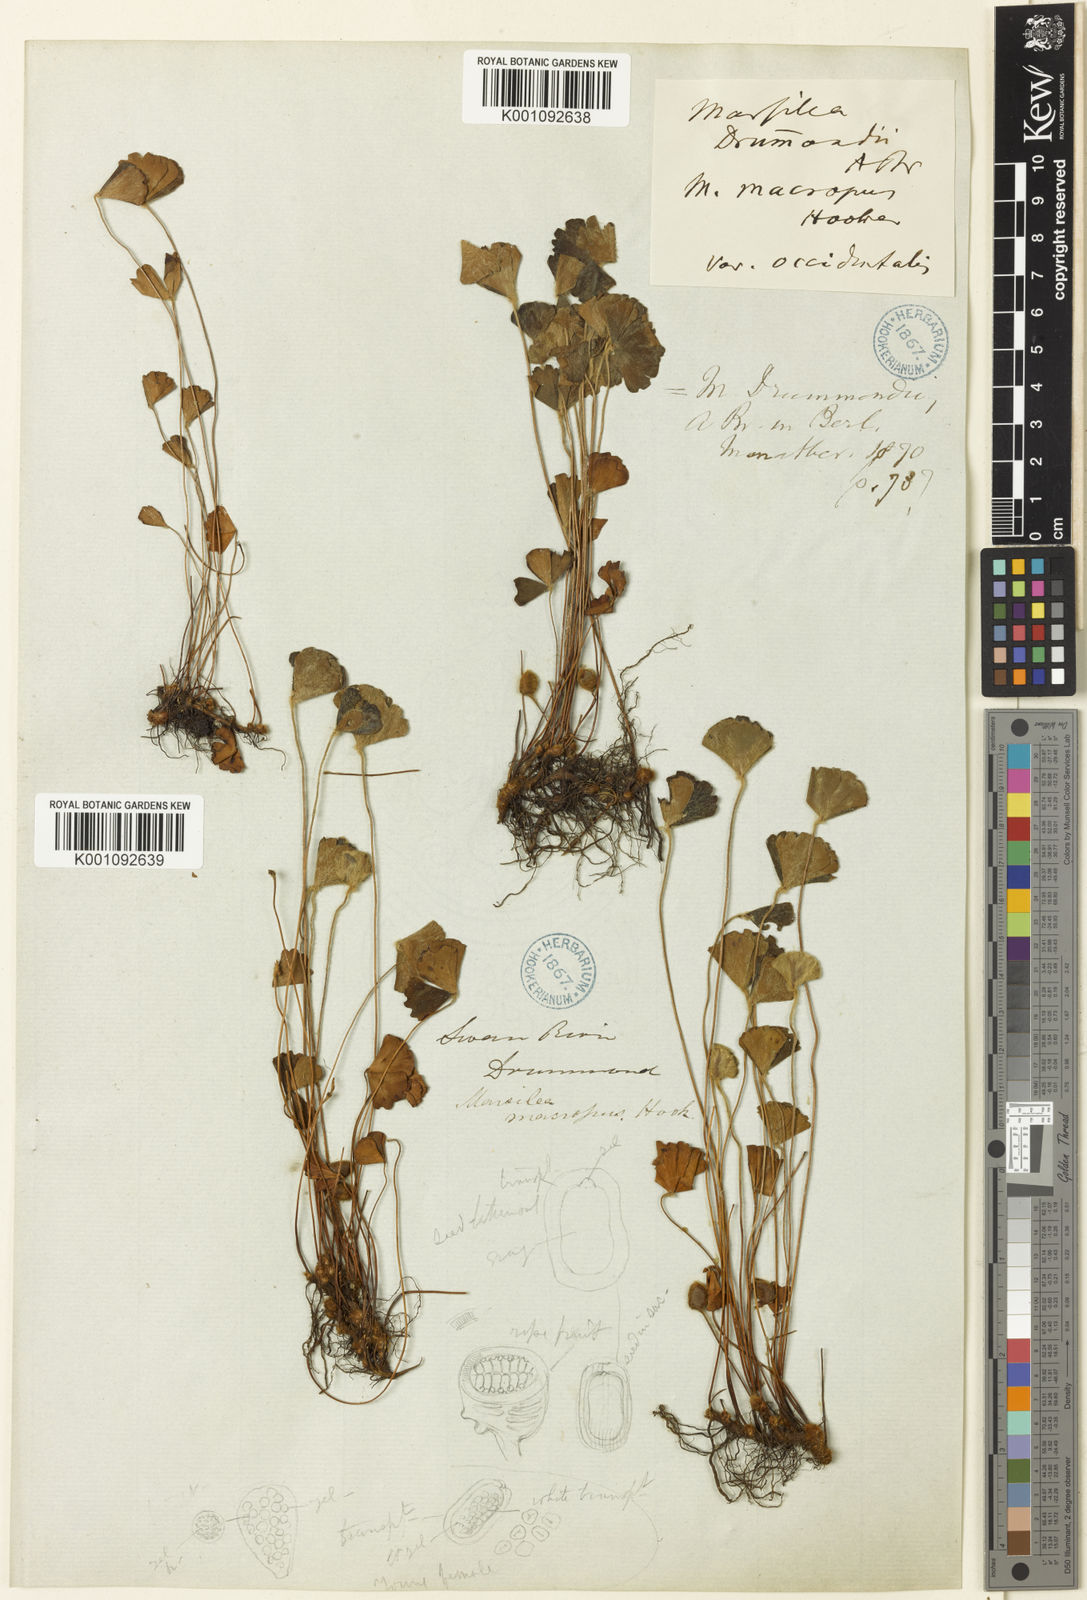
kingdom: Plantae
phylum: Tracheophyta
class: Polypodiopsida
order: Salviniales
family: Marsileaceae
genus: Marsilea
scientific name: Marsilea drummondii
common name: Nardoo
